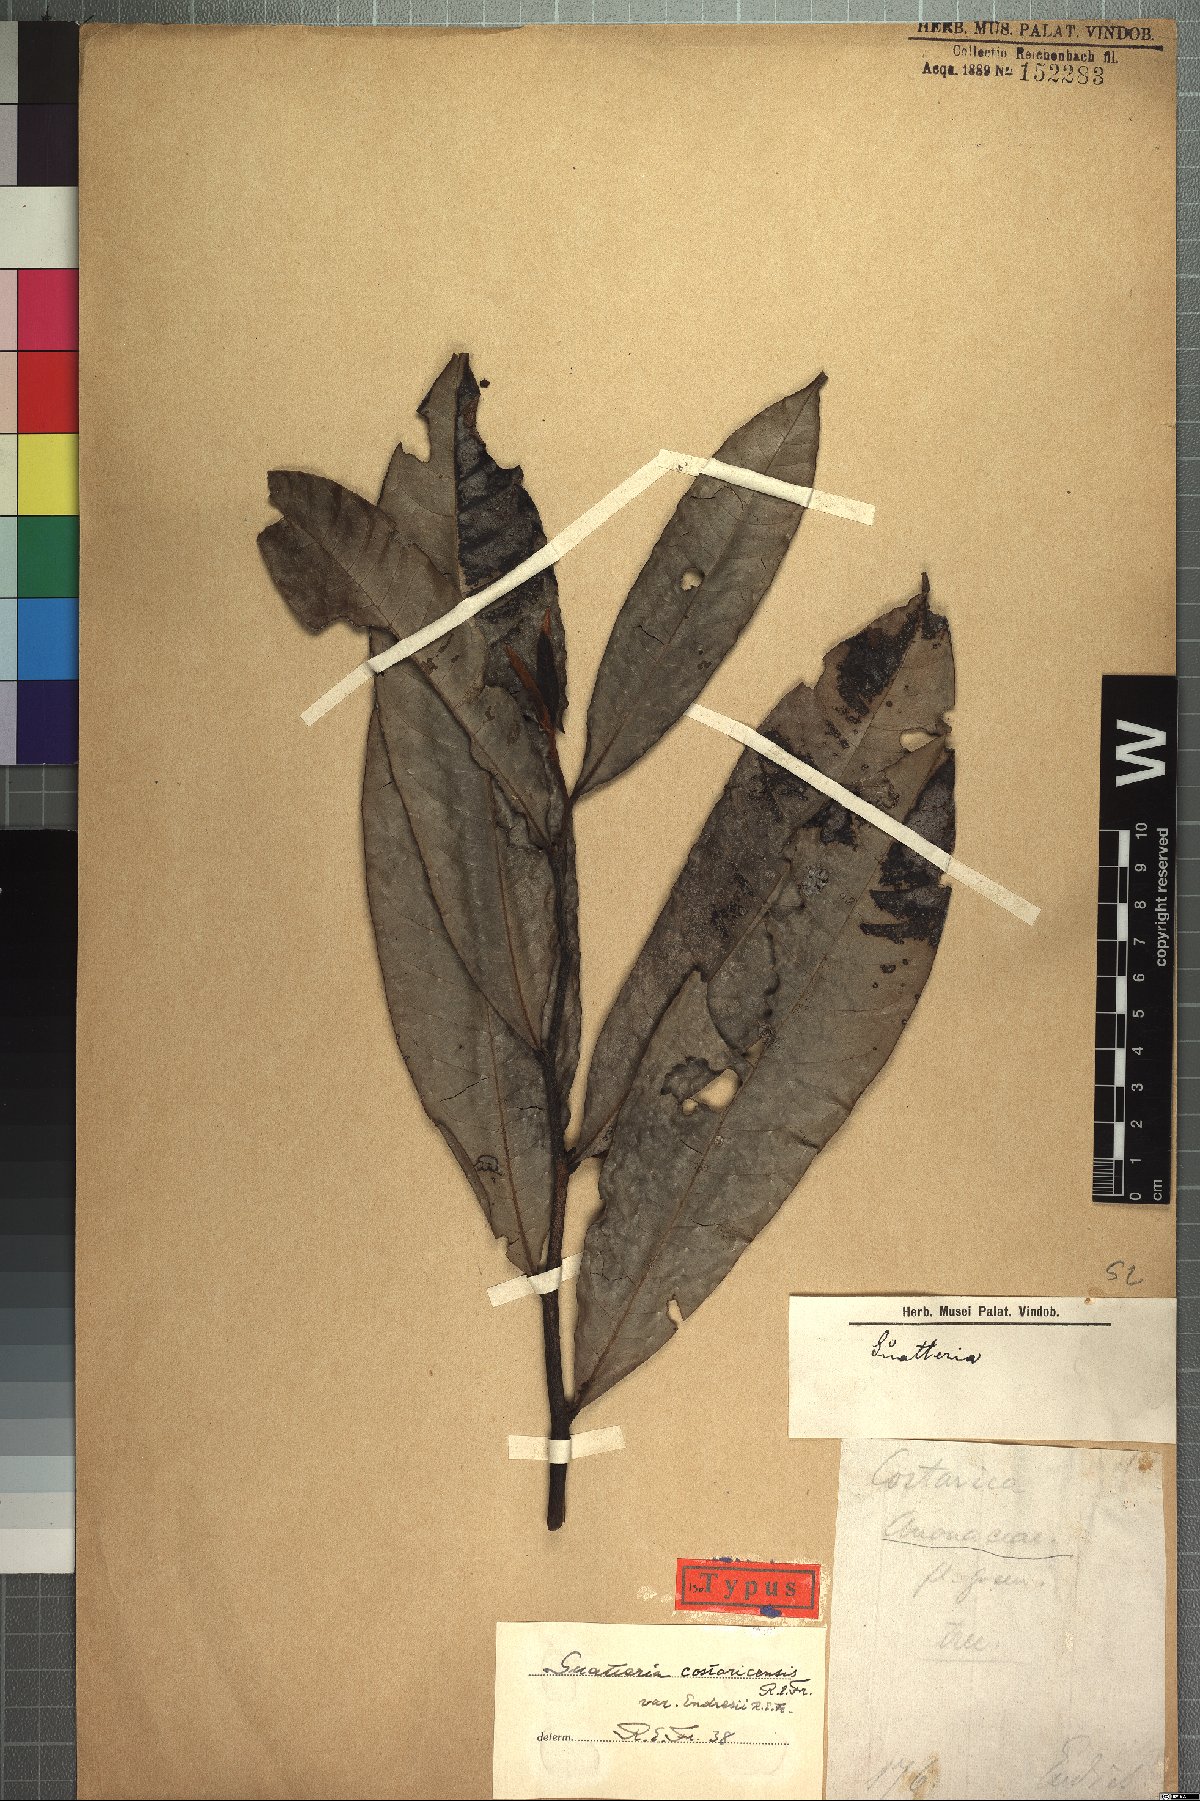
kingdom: Plantae
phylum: Tracheophyta
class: Magnoliopsida
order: Magnoliales
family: Annonaceae
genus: Guatteria
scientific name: Guatteria costaricensis
